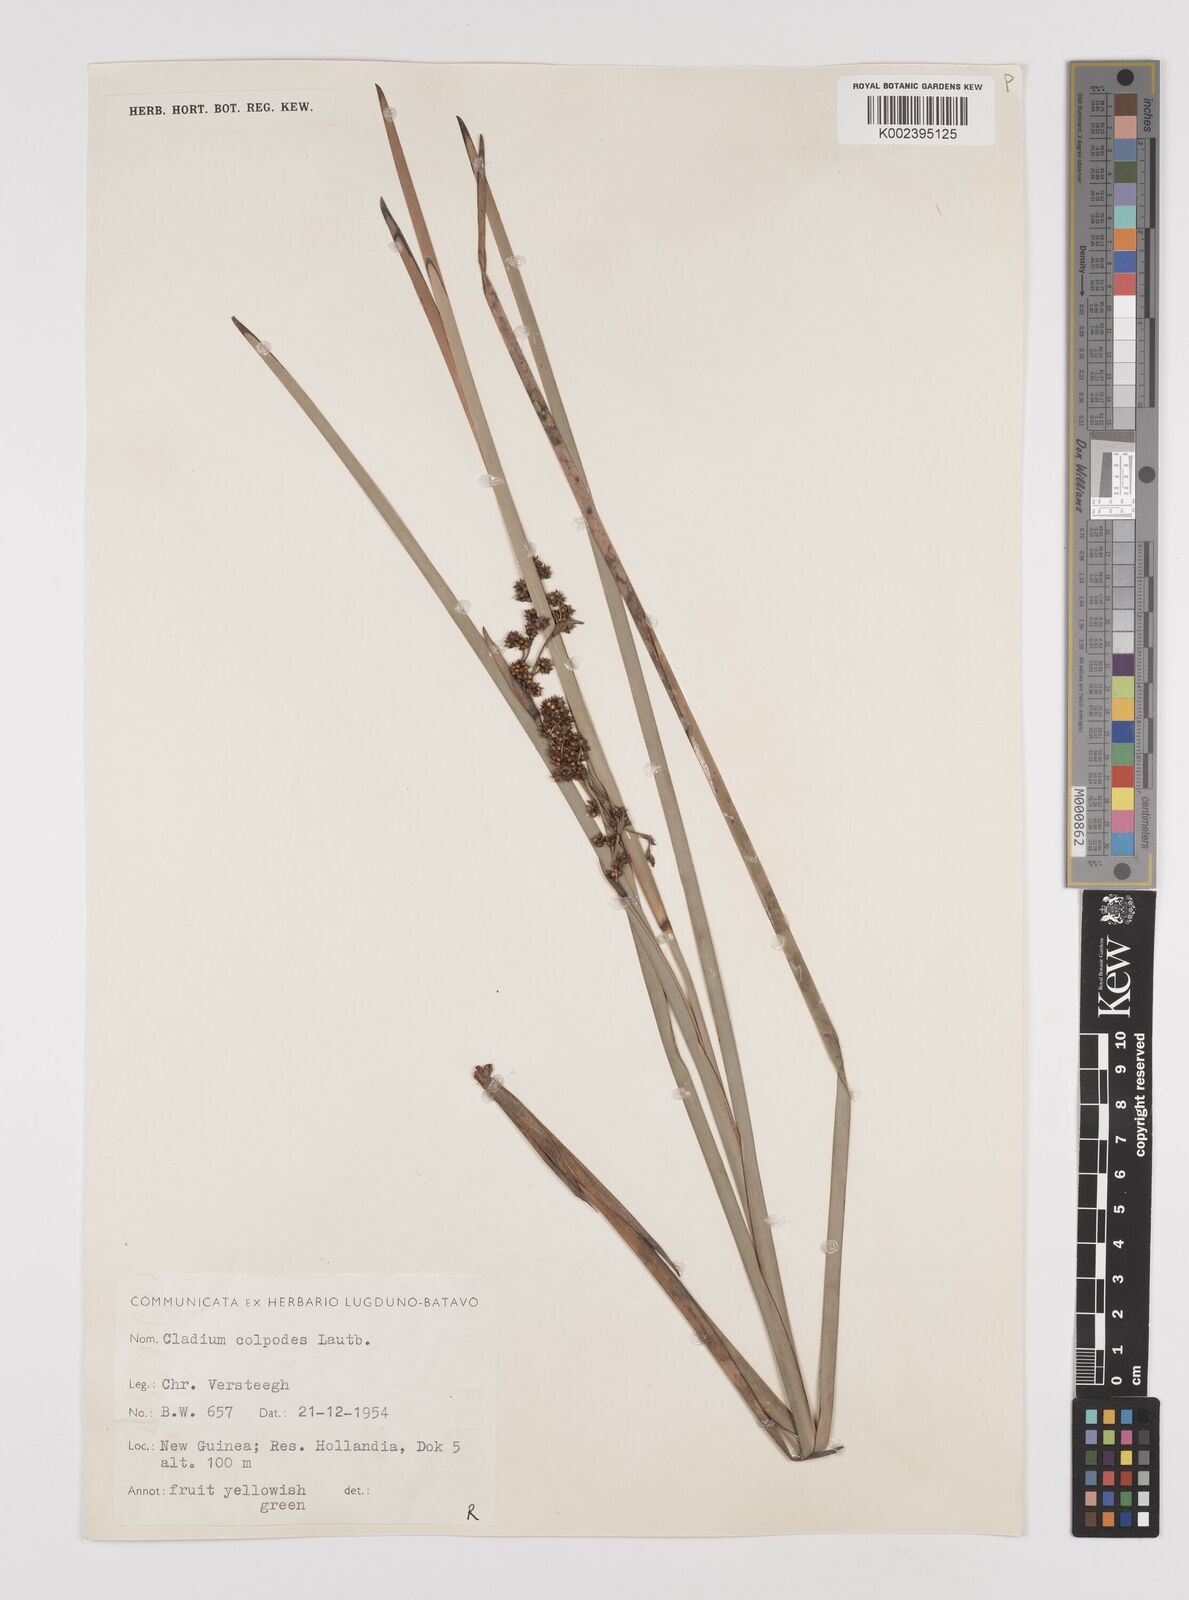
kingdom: Plantae
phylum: Tracheophyta
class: Liliopsida
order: Poales
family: Cyperaceae
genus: Machaerina
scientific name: Machaerina glomerata
